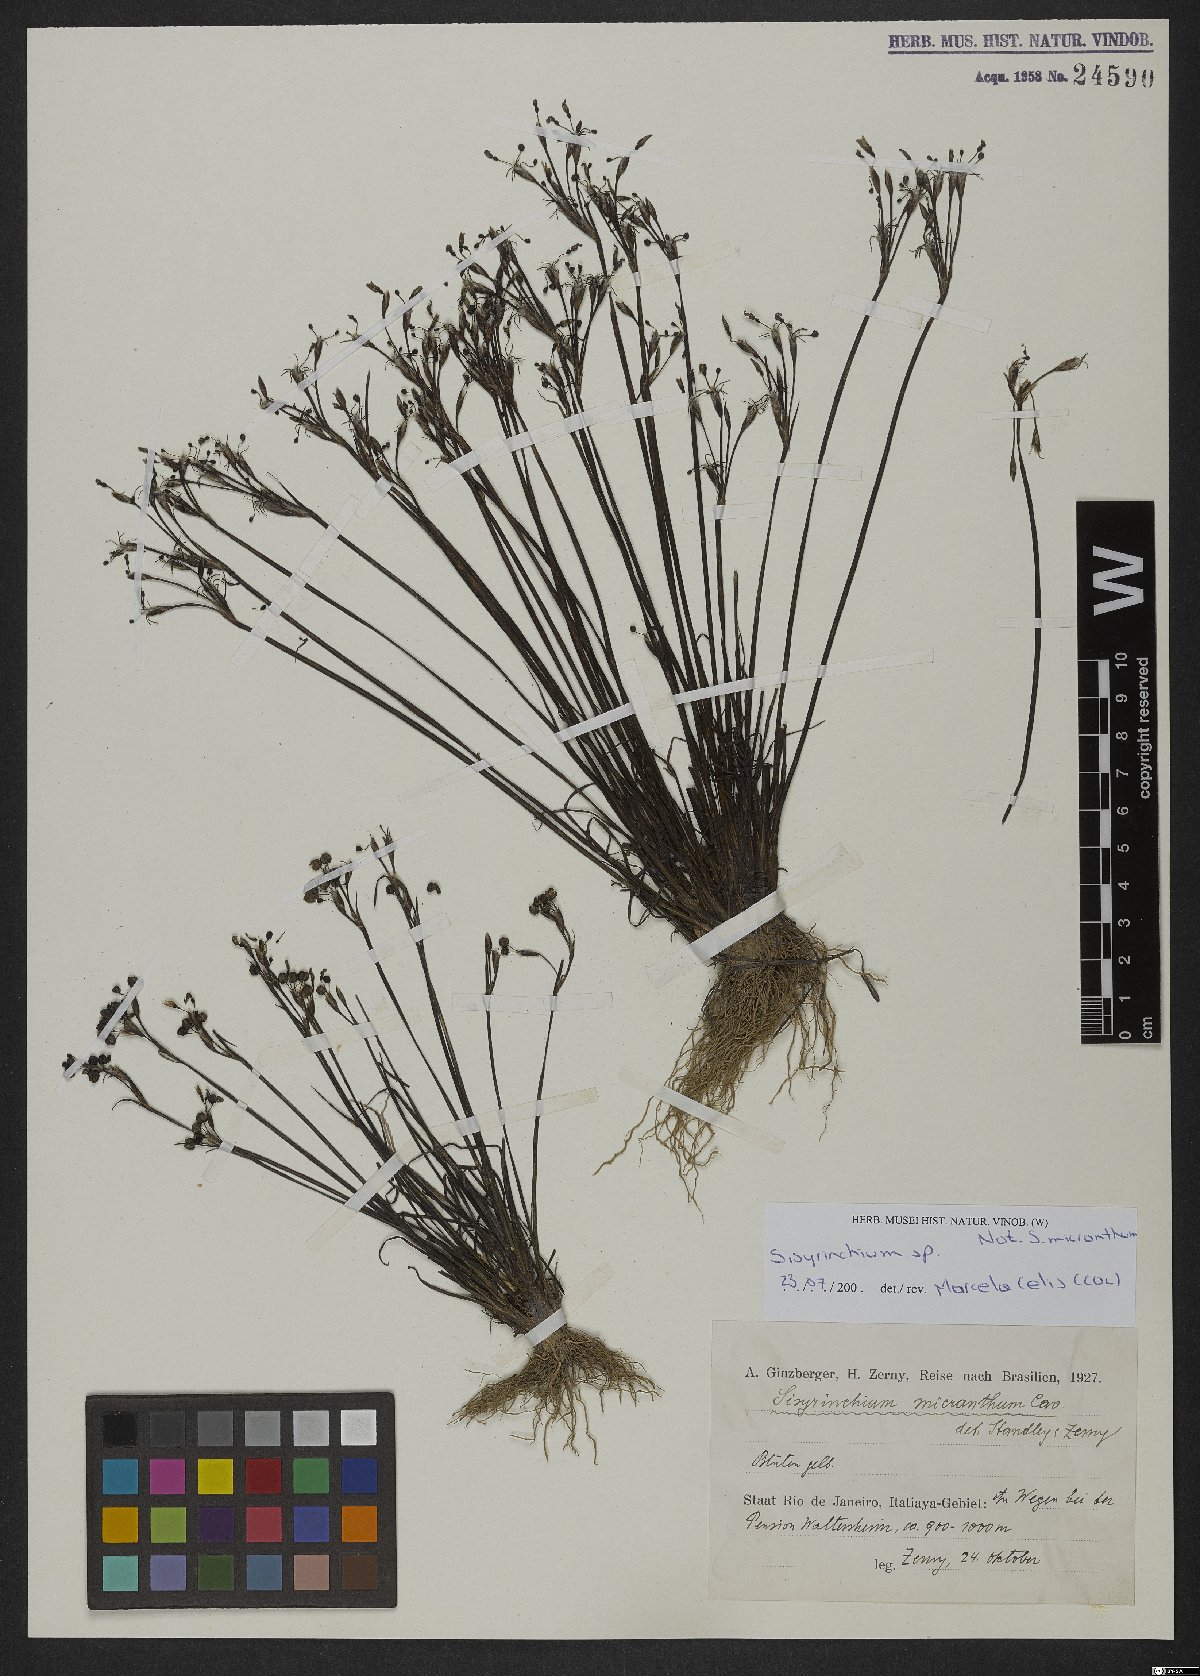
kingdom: Plantae
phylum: Tracheophyta
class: Liliopsida
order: Asparagales
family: Iridaceae
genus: Sisyrinchium
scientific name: Sisyrinchium wettsteinii
